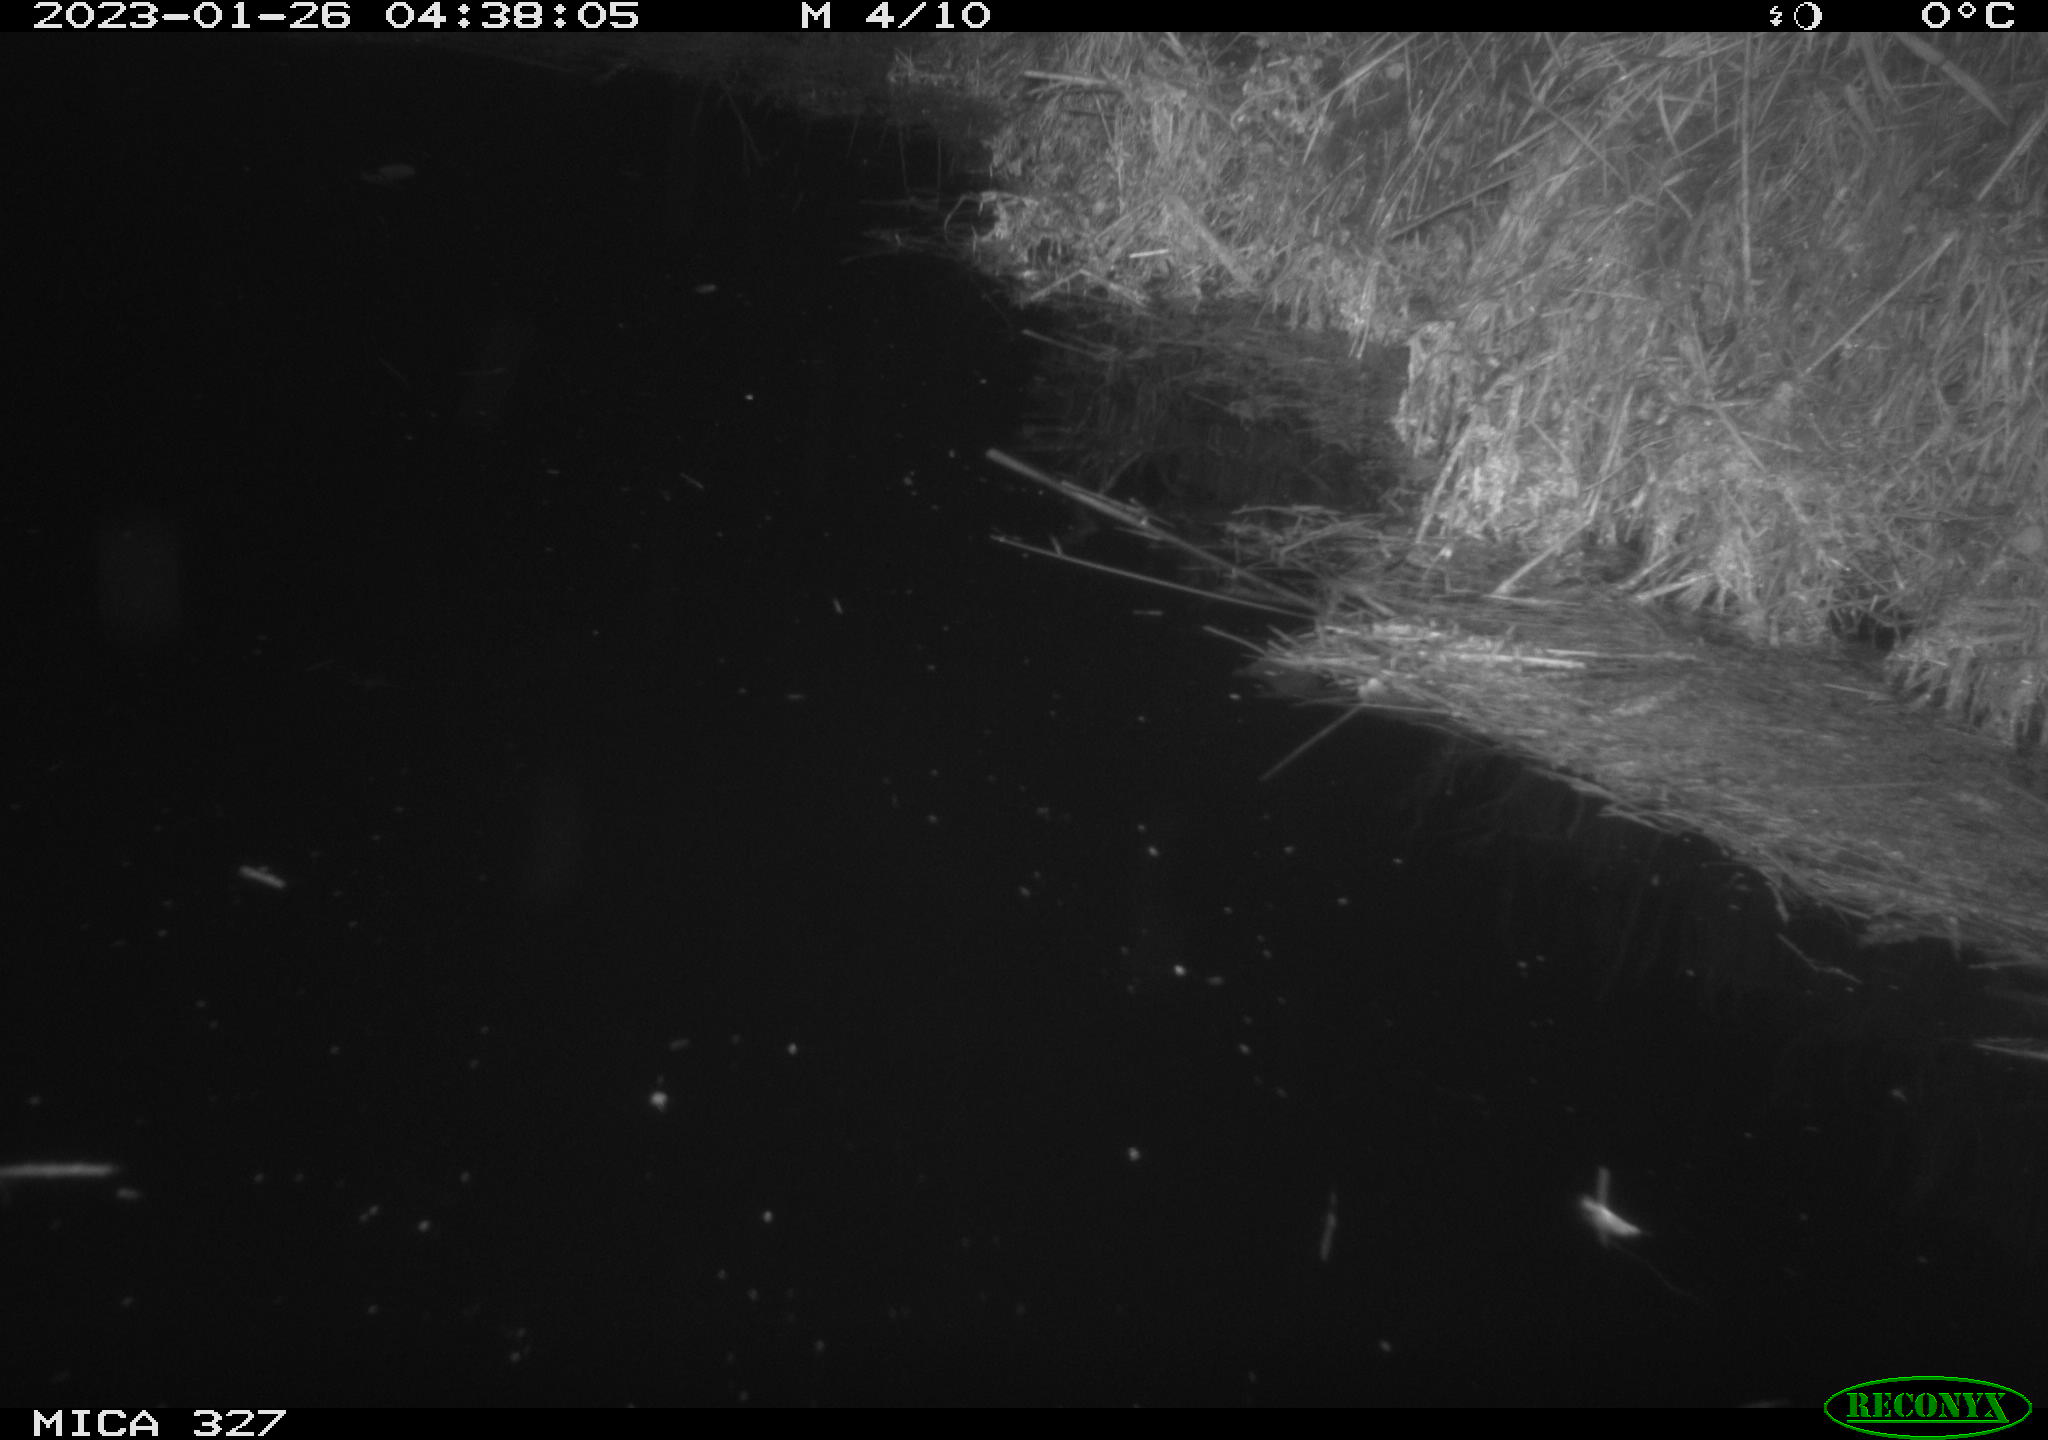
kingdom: Animalia
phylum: Chordata
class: Mammalia
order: Rodentia
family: Cricetidae
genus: Ondatra
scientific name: Ondatra zibethicus
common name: Muskrat
